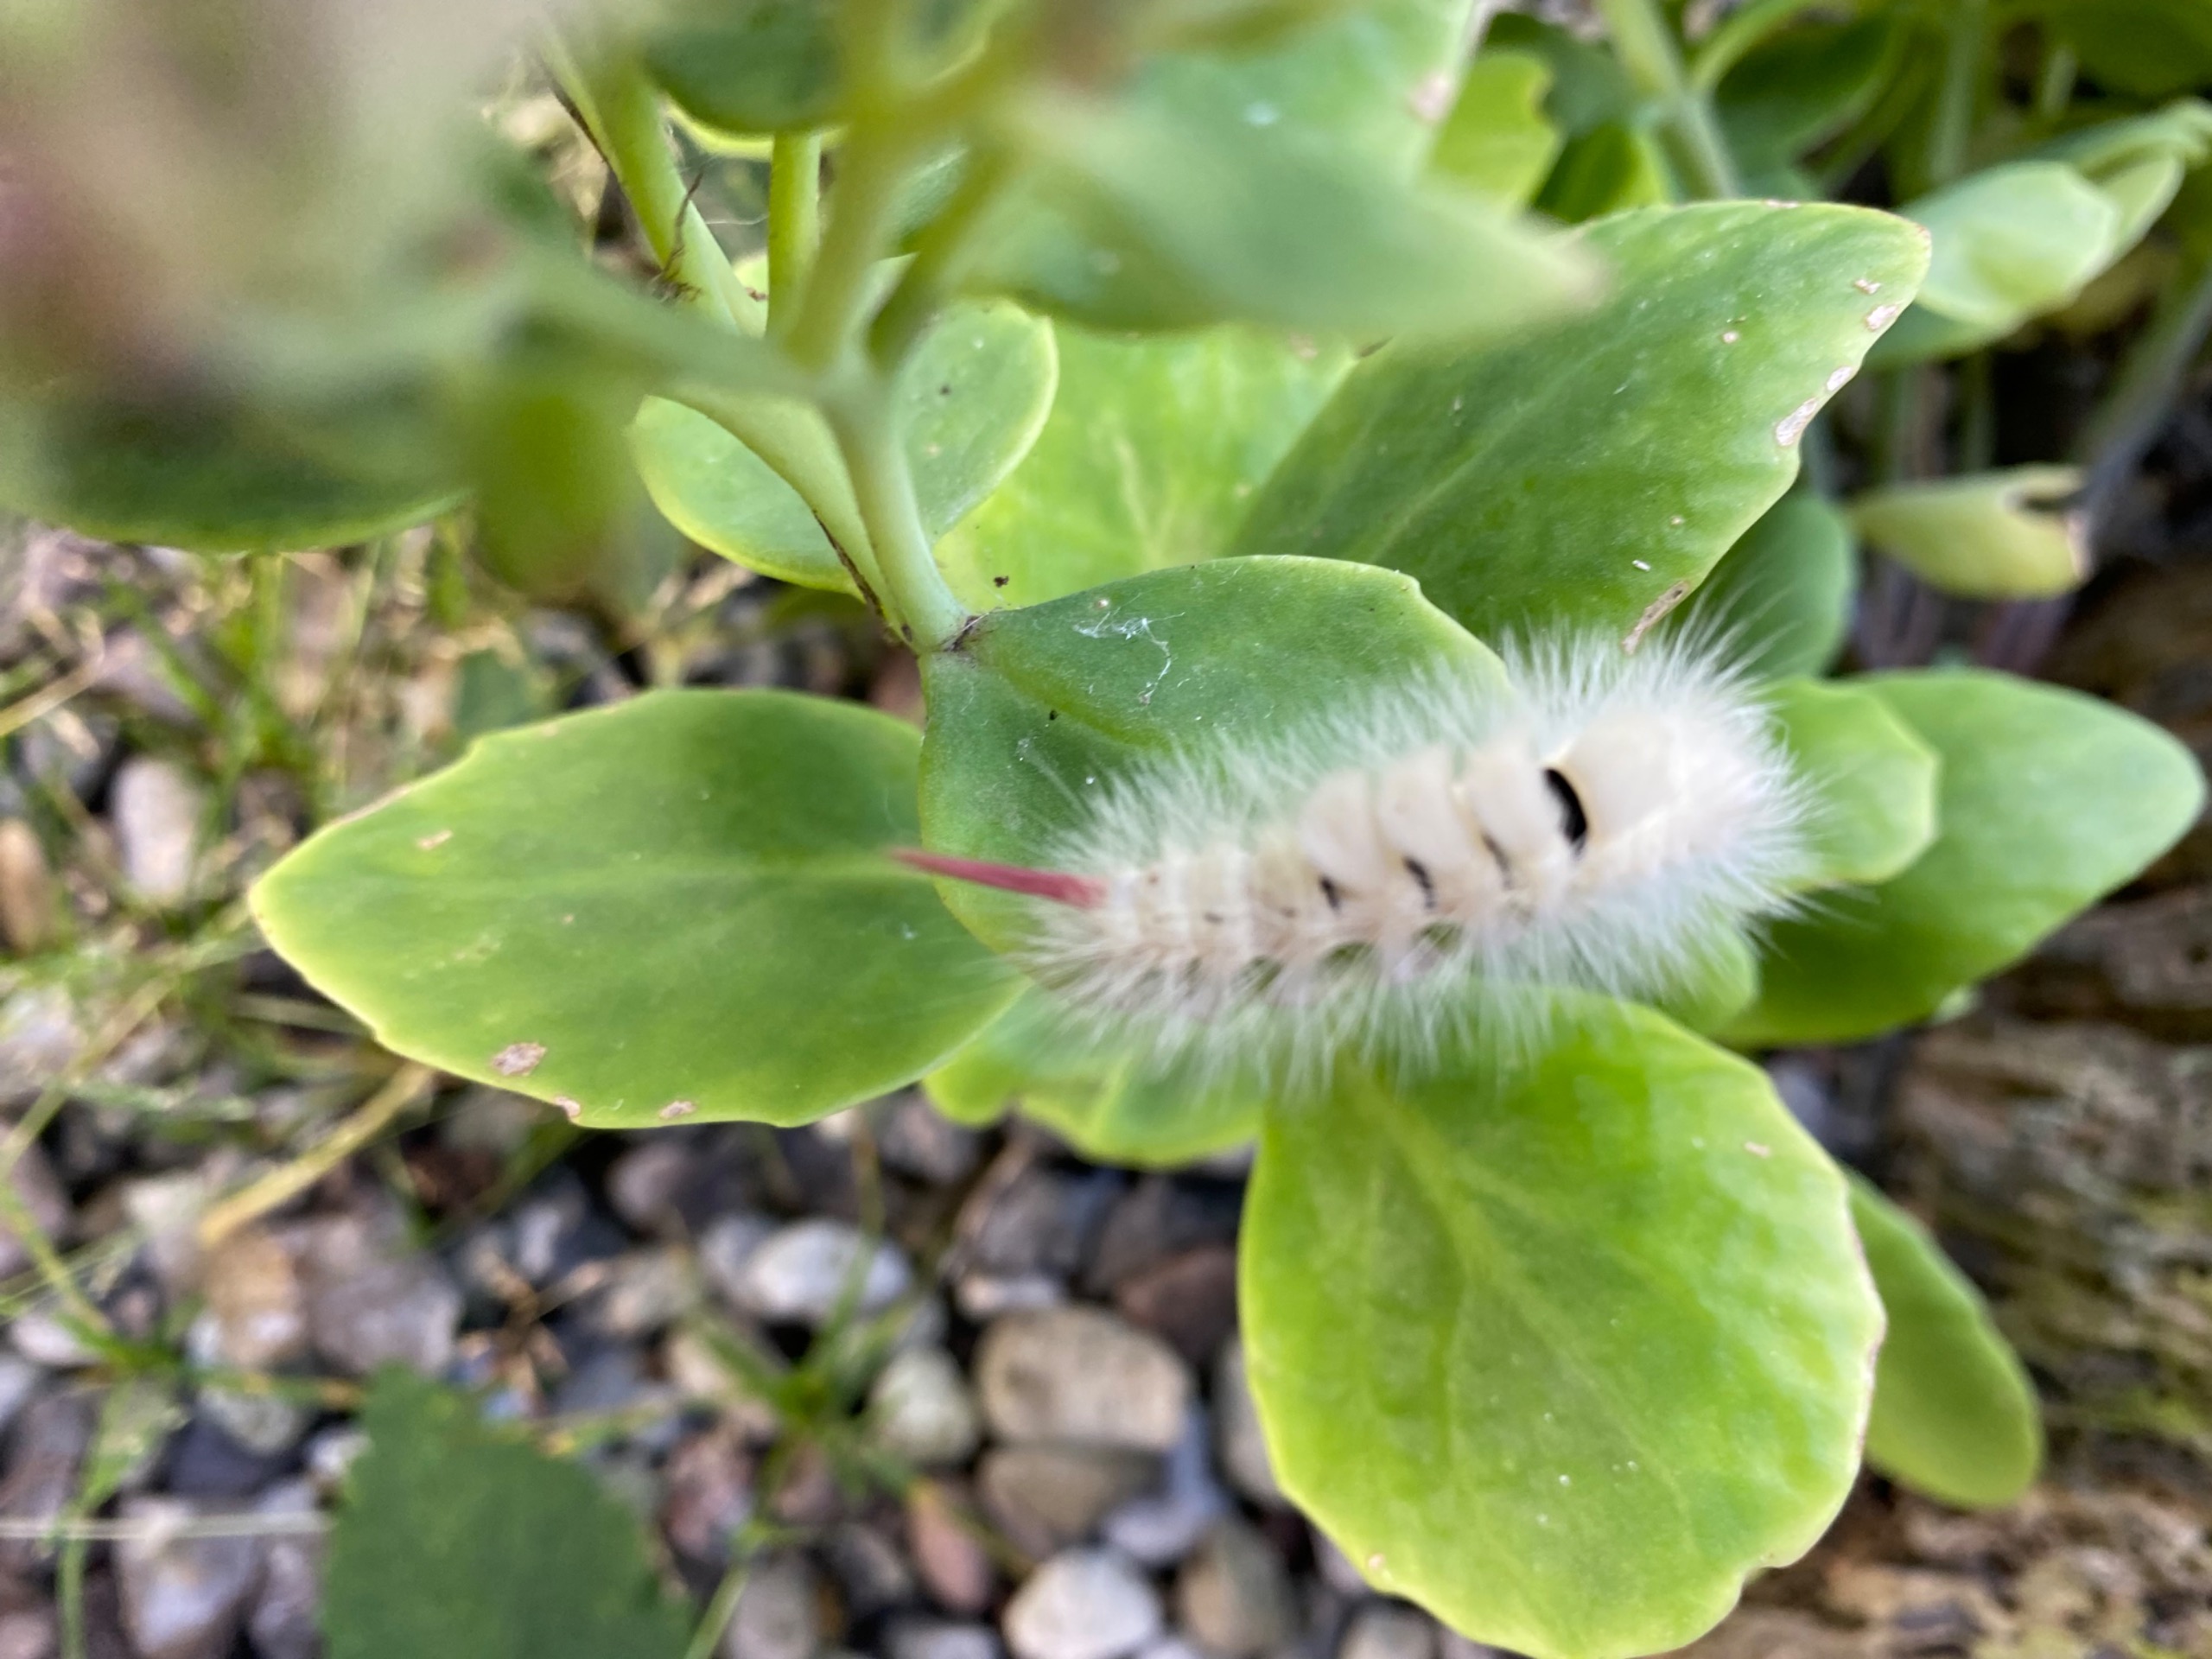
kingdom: Animalia
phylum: Arthropoda
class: Insecta
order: Lepidoptera
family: Erebidae
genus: Calliteara
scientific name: Calliteara pudibunda
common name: Bøgenonne
